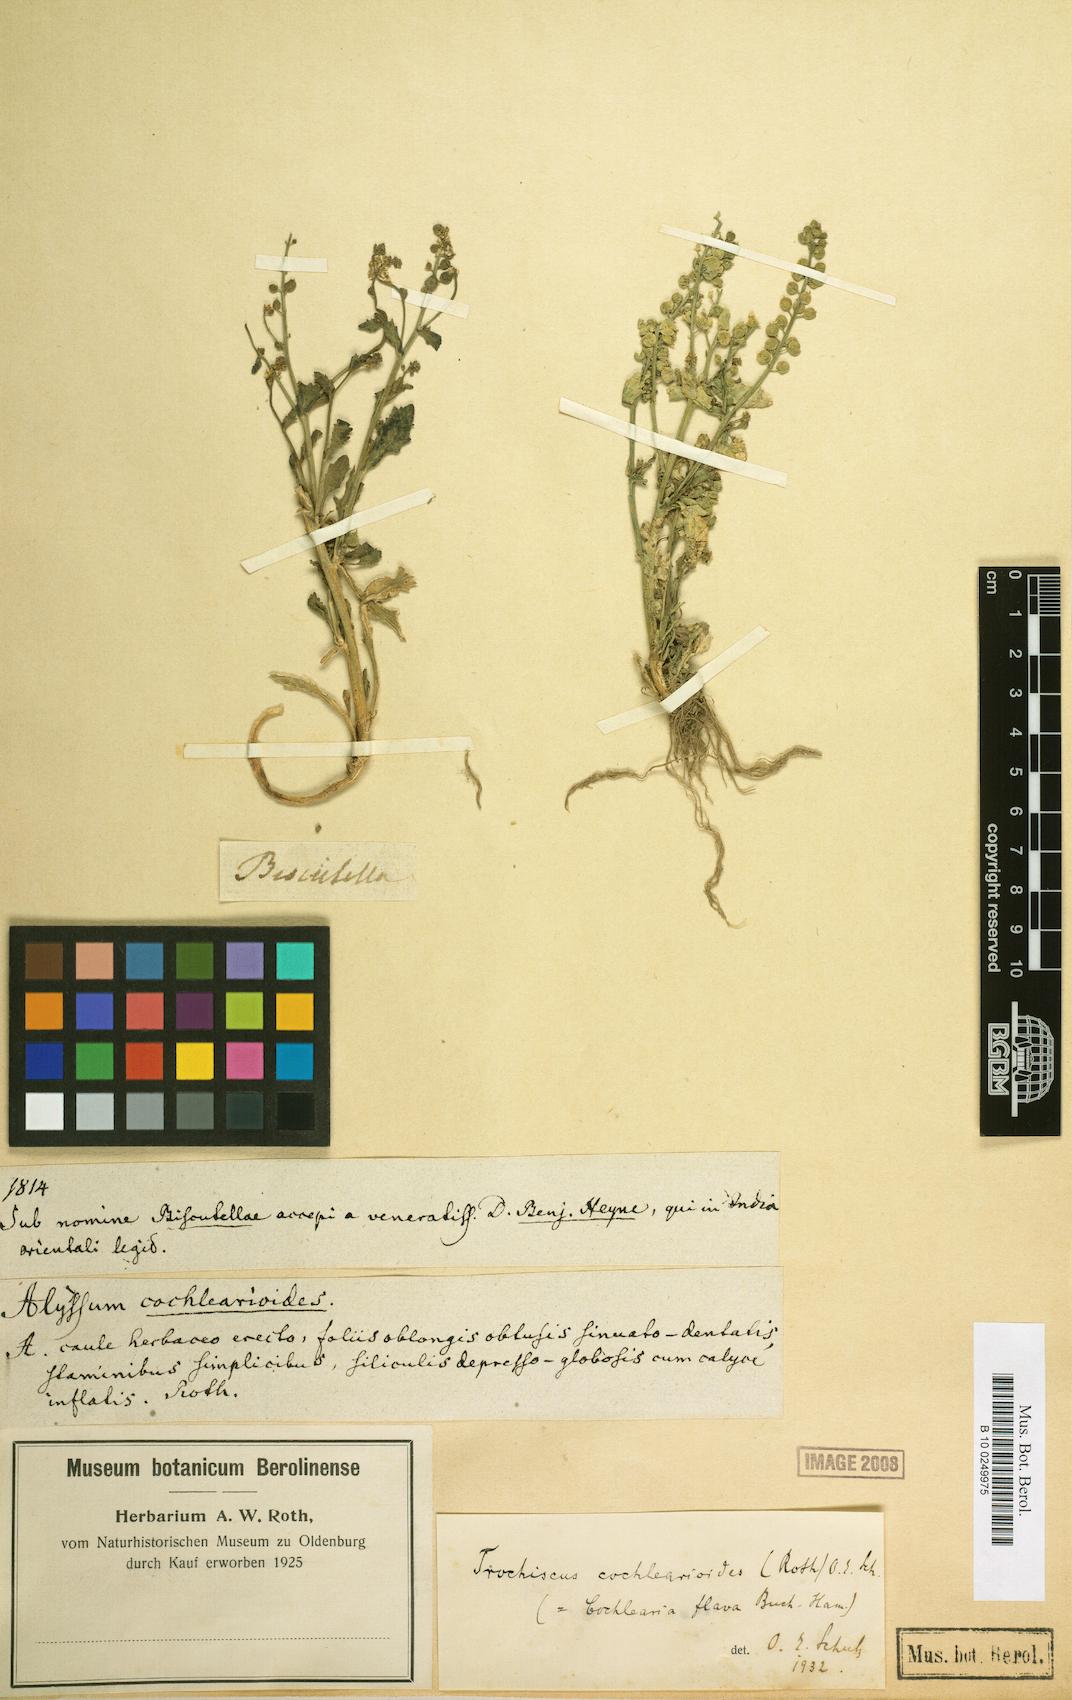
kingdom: Plantae
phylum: Tracheophyta
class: Magnoliopsida
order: Brassicales
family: Brassicaceae
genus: Rorippa
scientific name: Rorippa cochlearioides
